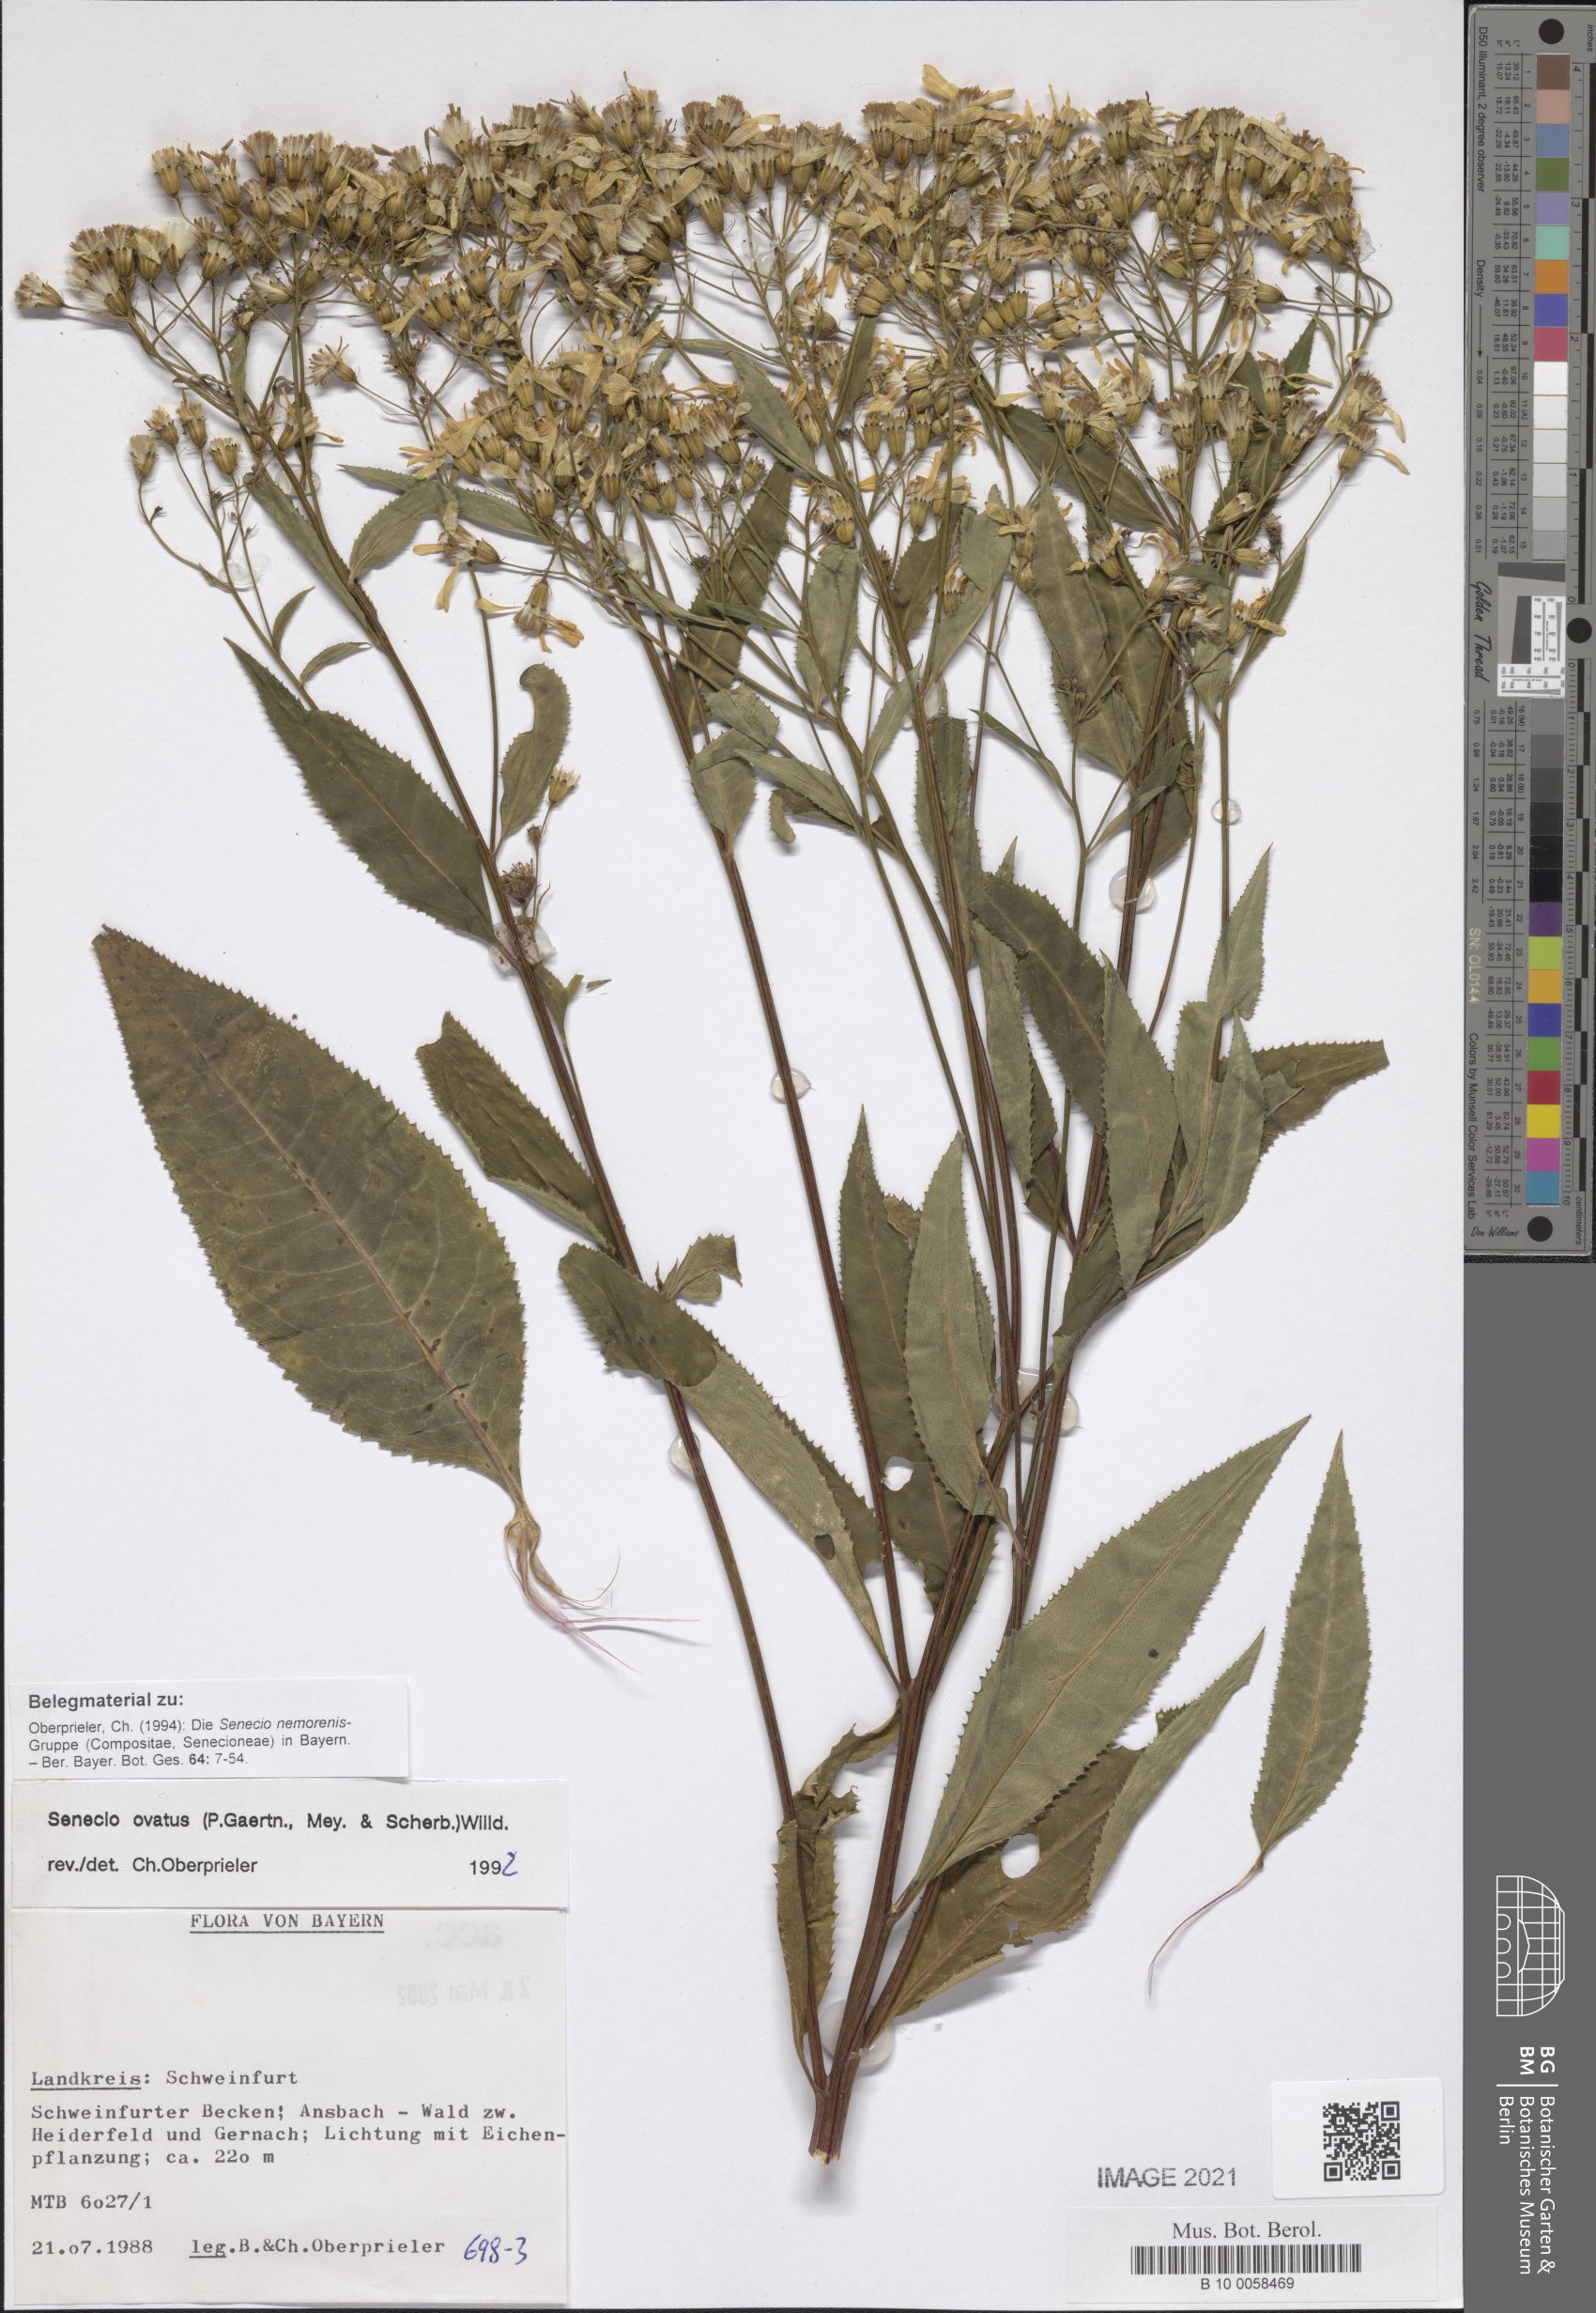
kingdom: Plantae
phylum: Tracheophyta
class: Magnoliopsida
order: Asterales
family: Asteraceae
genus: Senecio
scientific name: Senecio ovatus
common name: Wood ragwort
